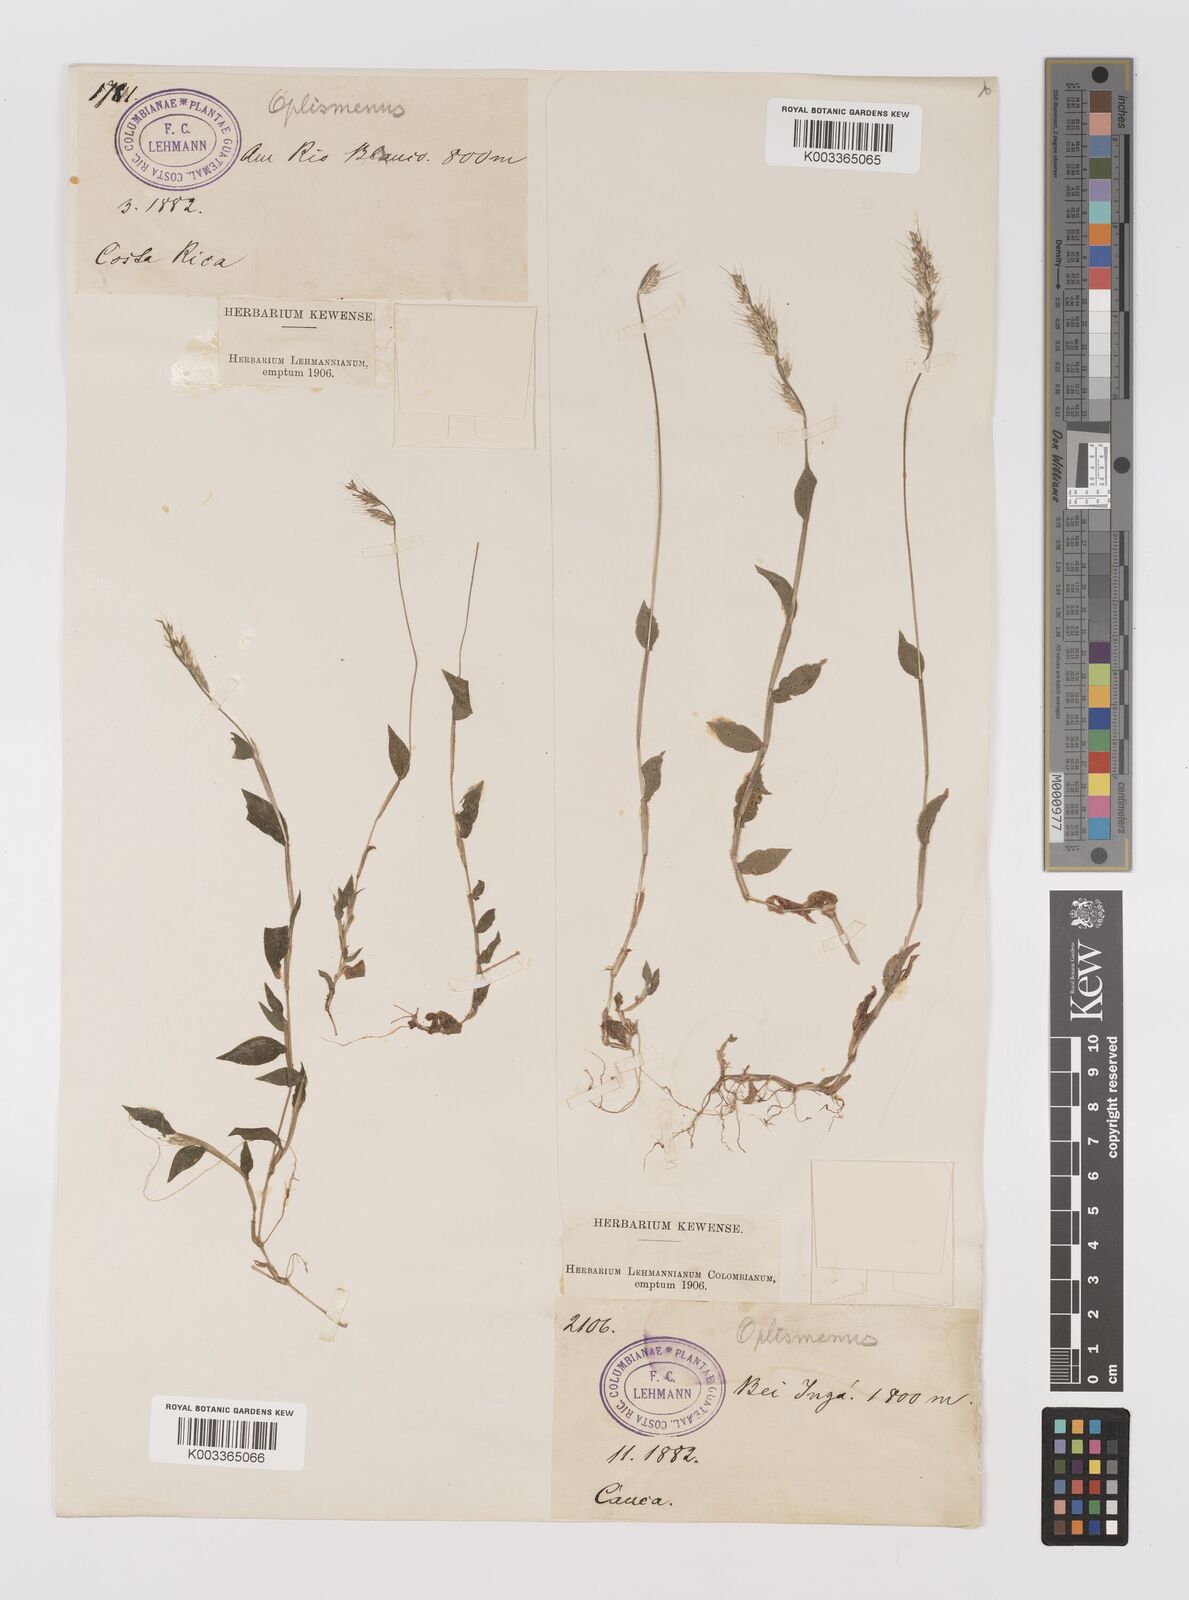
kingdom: Plantae
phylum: Tracheophyta
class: Liliopsida
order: Poales
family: Poaceae
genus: Oplismenus
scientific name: Oplismenus burmanni
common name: Burmann's basketgrass
